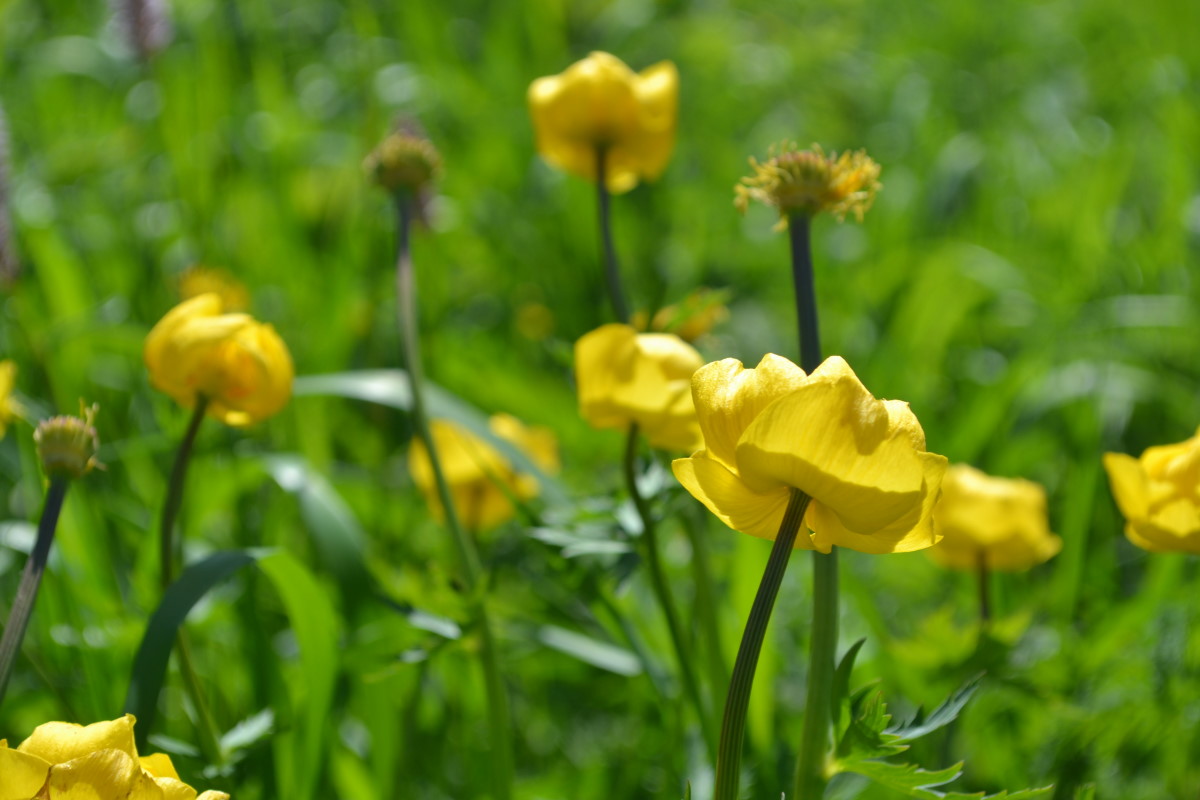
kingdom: Plantae
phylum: Tracheophyta
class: Magnoliopsida
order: Ranunculales
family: Ranunculaceae
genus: Trollius
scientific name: Trollius europaeus
